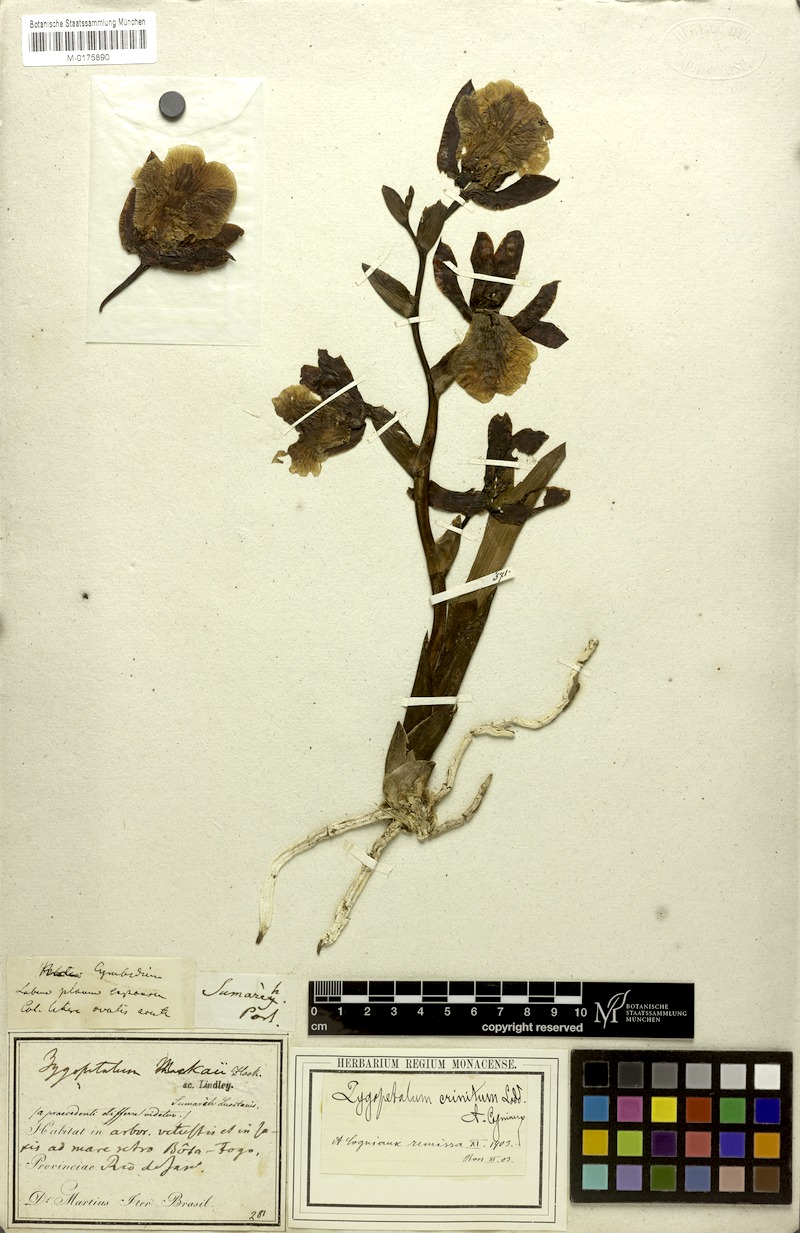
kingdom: Plantae
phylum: Tracheophyta
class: Liliopsida
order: Asparagales
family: Orchidaceae
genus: Zygopetalum
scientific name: Zygopetalum crinitum
